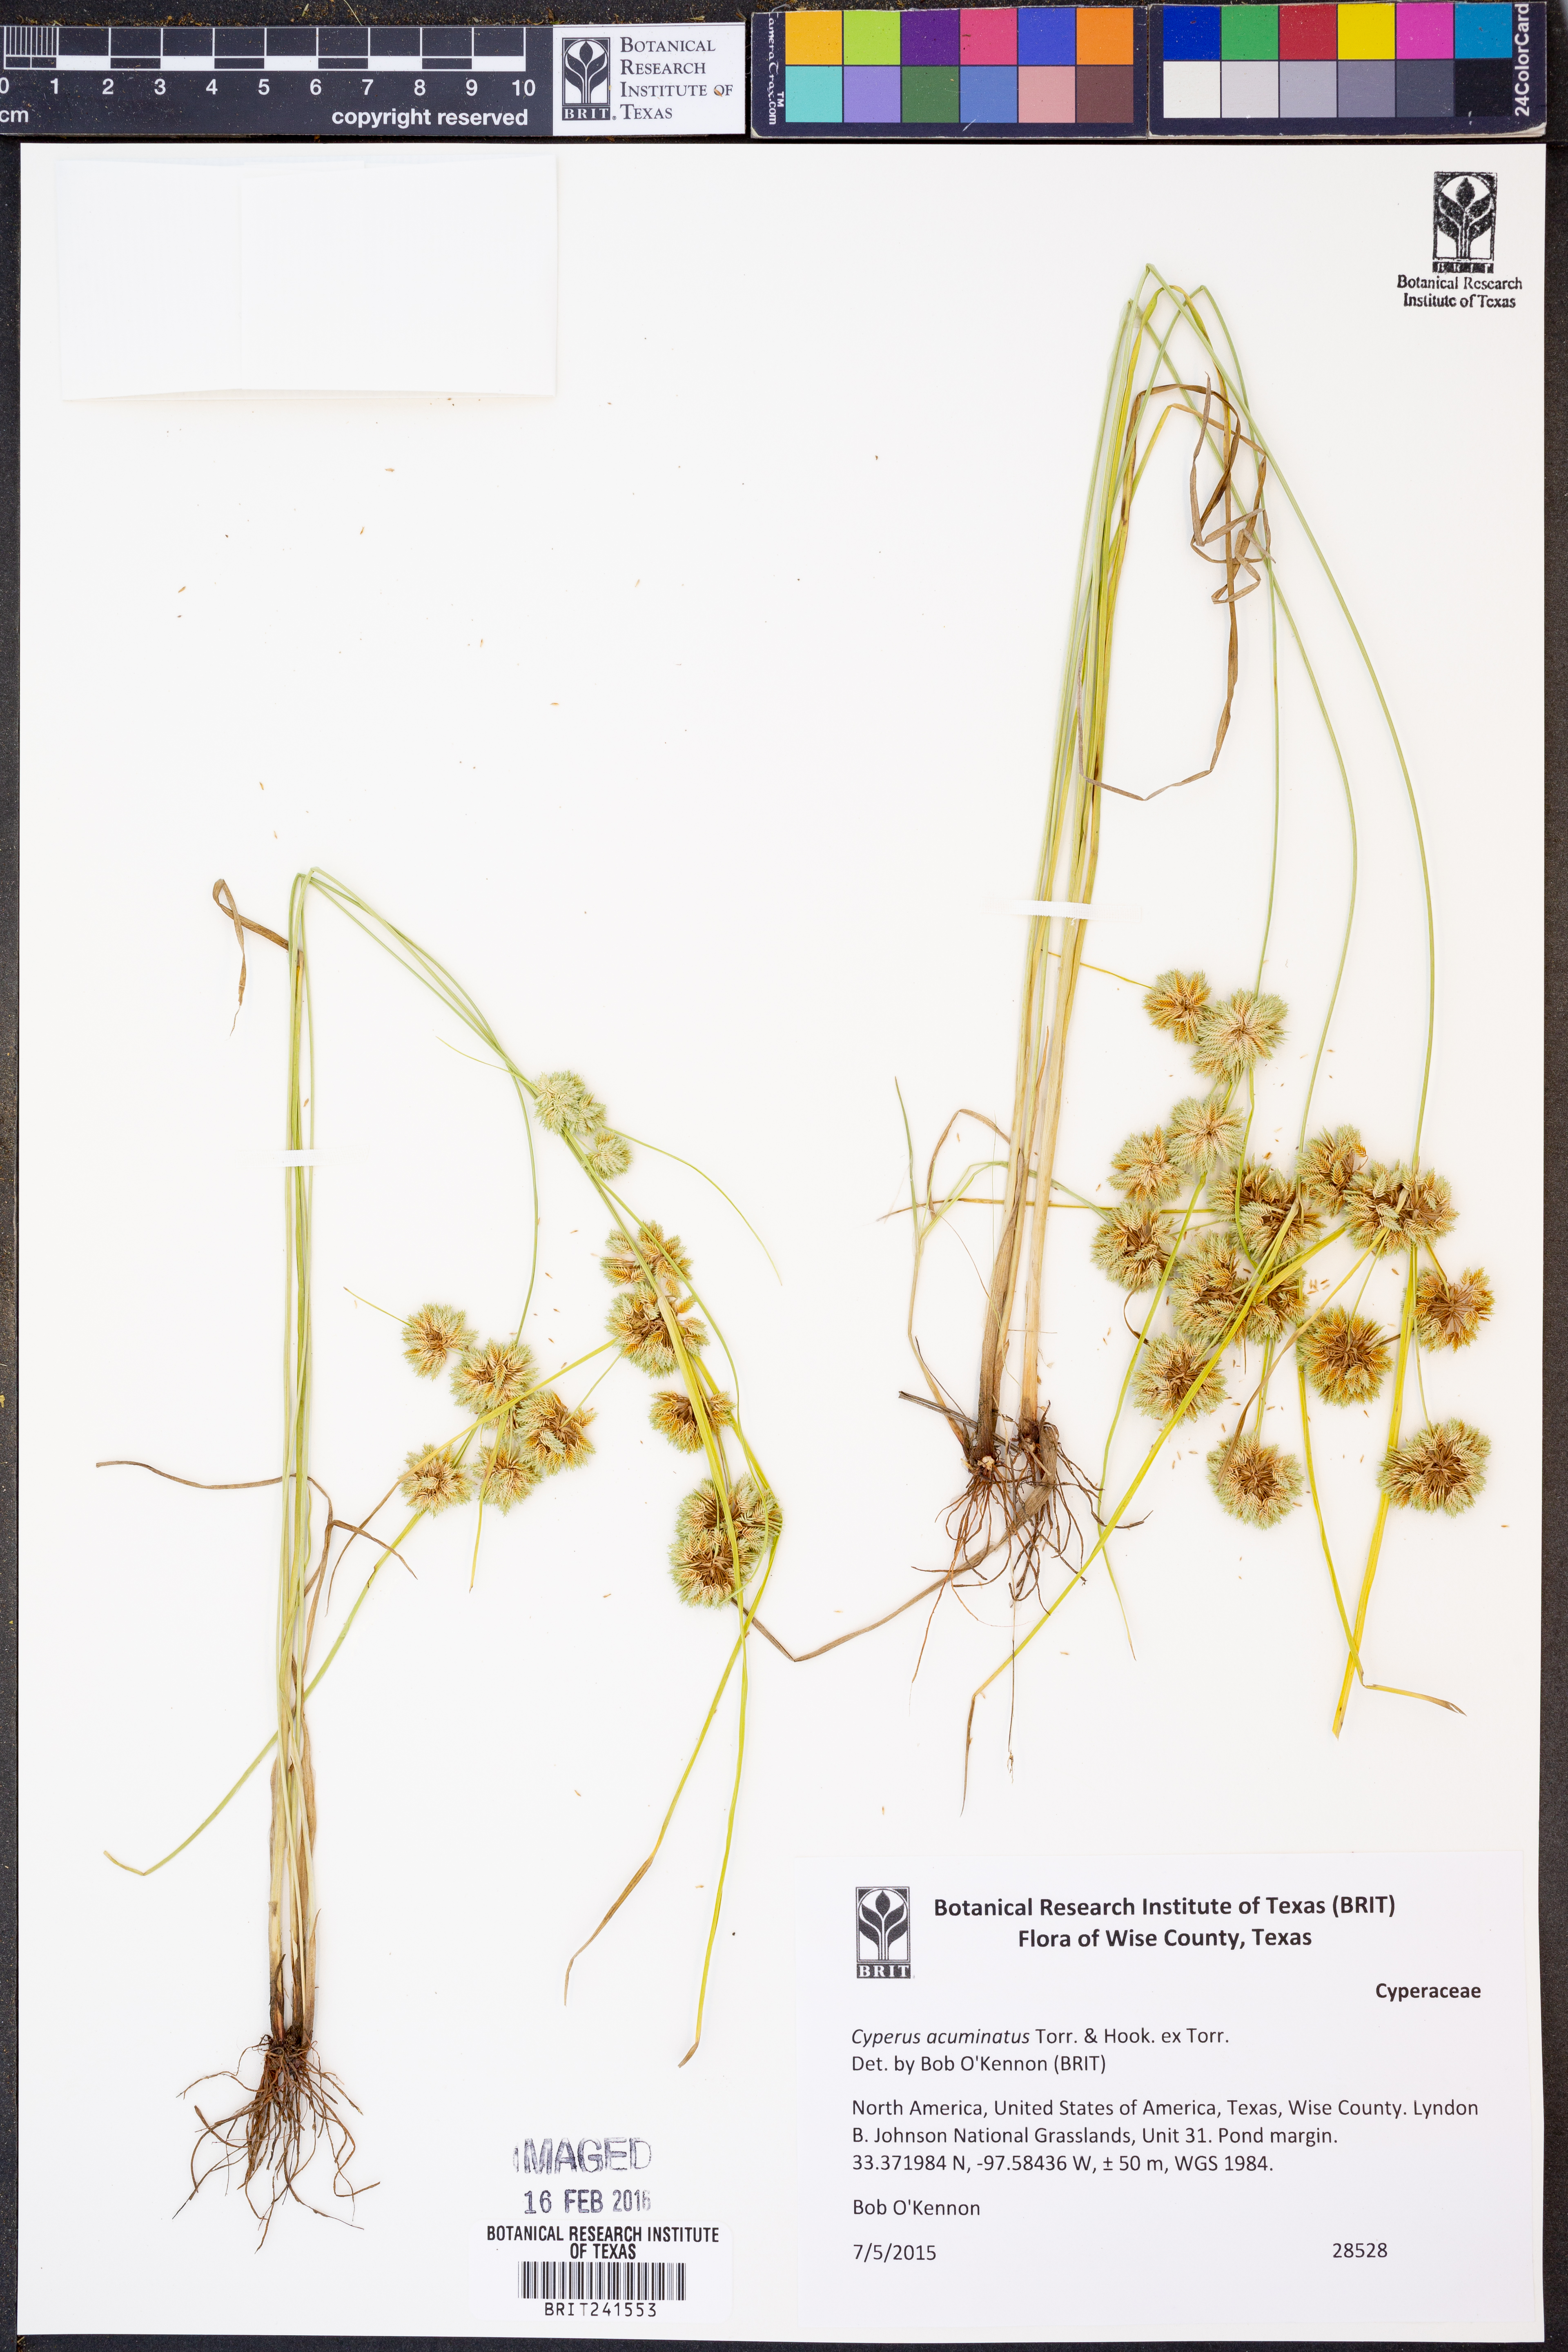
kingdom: Plantae
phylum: Tracheophyta
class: Liliopsida
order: Poales
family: Cyperaceae
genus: Cyperus
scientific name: Cyperus acuminatus
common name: Short-pointed cyperus
